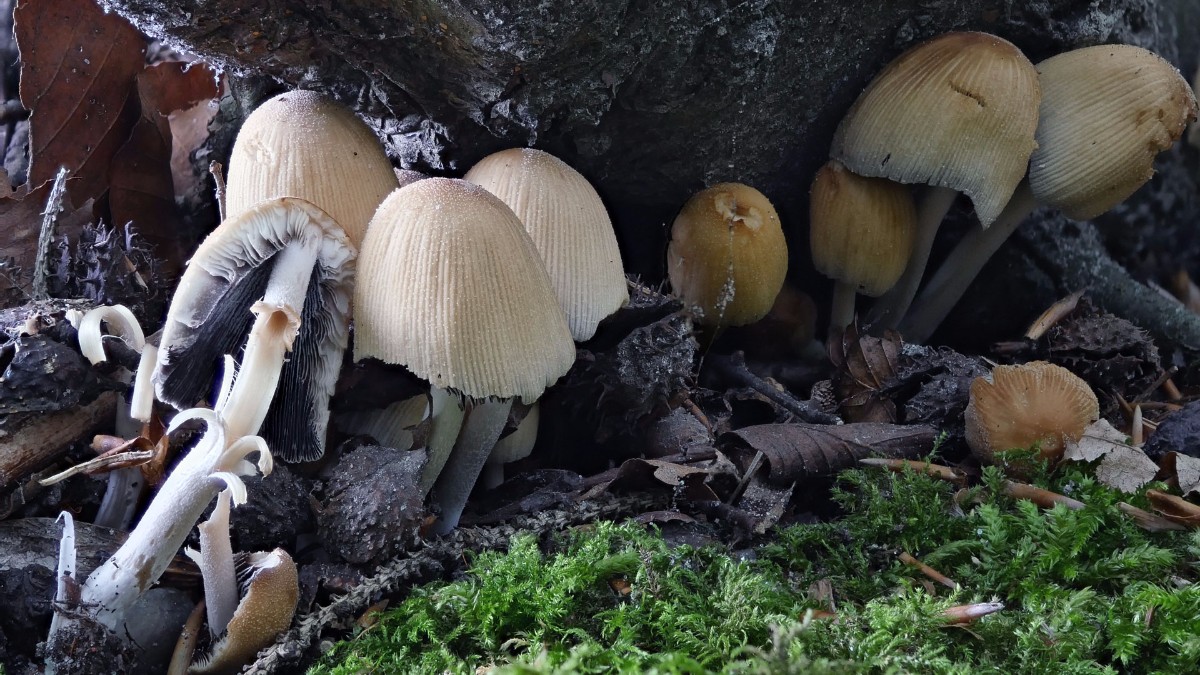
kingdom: Fungi
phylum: Basidiomycota
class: Agaricomycetes
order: Agaricales
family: Psathyrellaceae
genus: Coprinellus
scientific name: Coprinellus micaceus
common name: glimmer-blækhat
